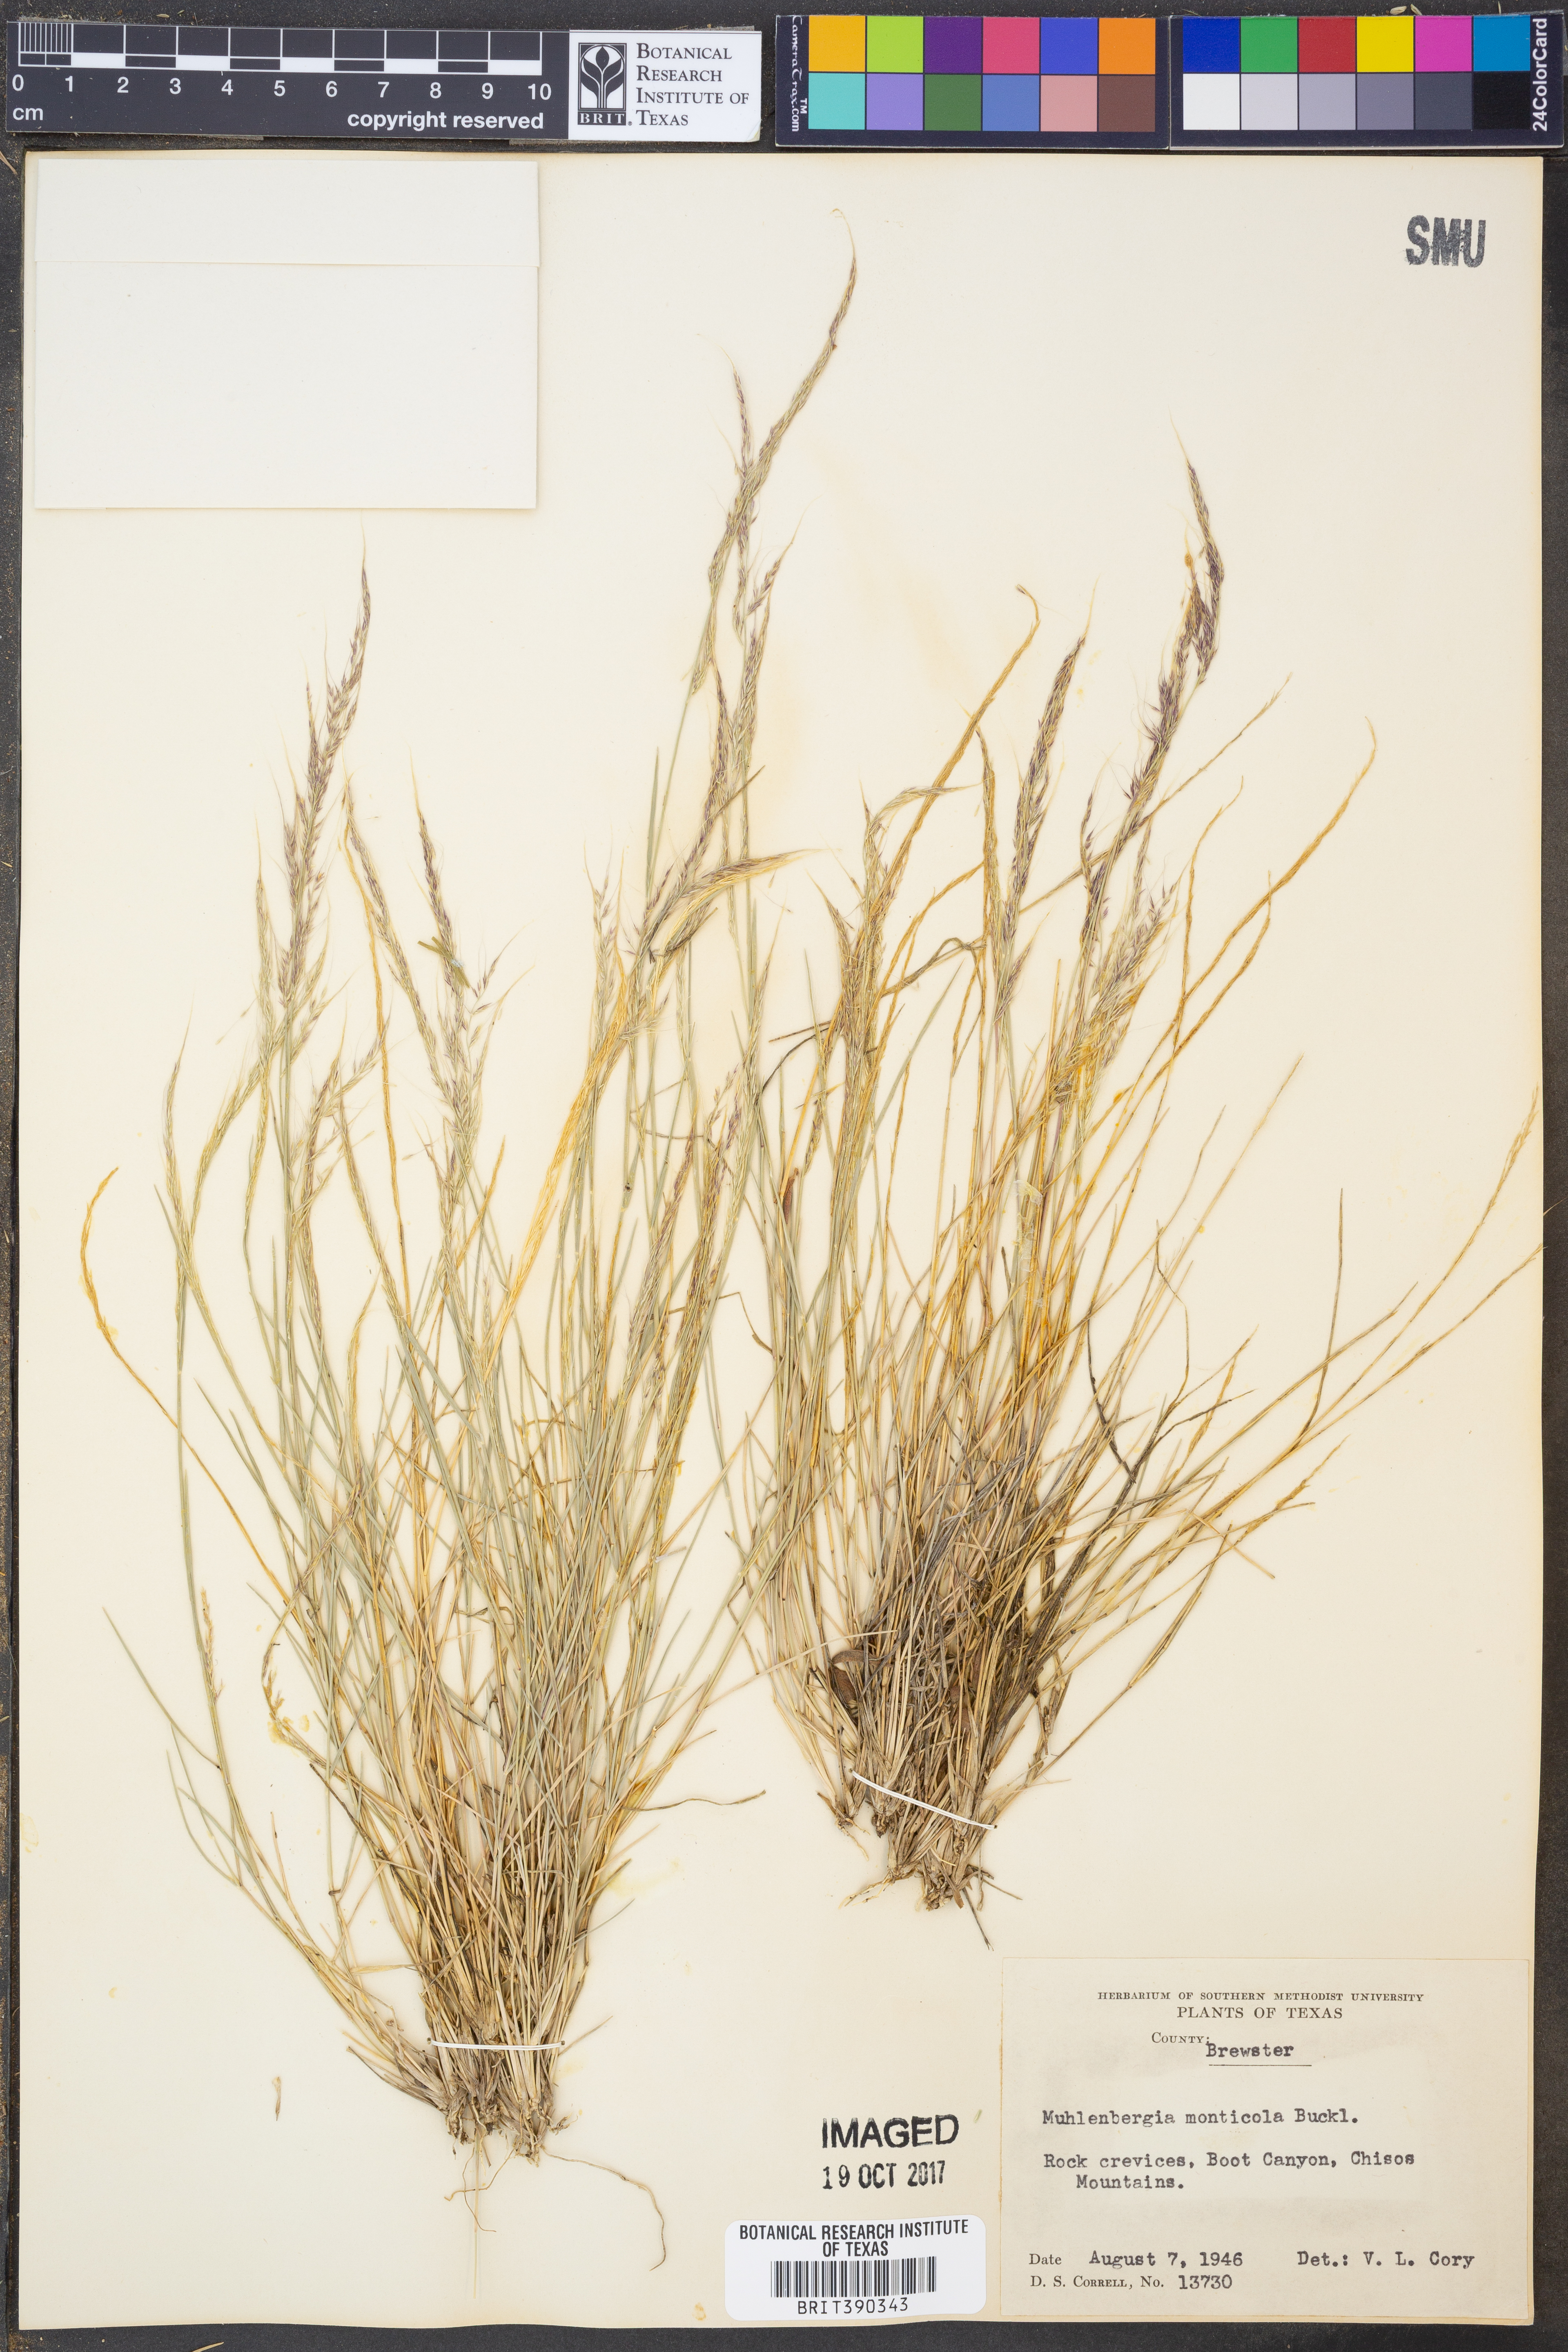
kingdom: Plantae
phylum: Tracheophyta
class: Liliopsida
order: Poales
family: Poaceae
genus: Muhlenbergia
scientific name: Muhlenbergia tenuifolia
